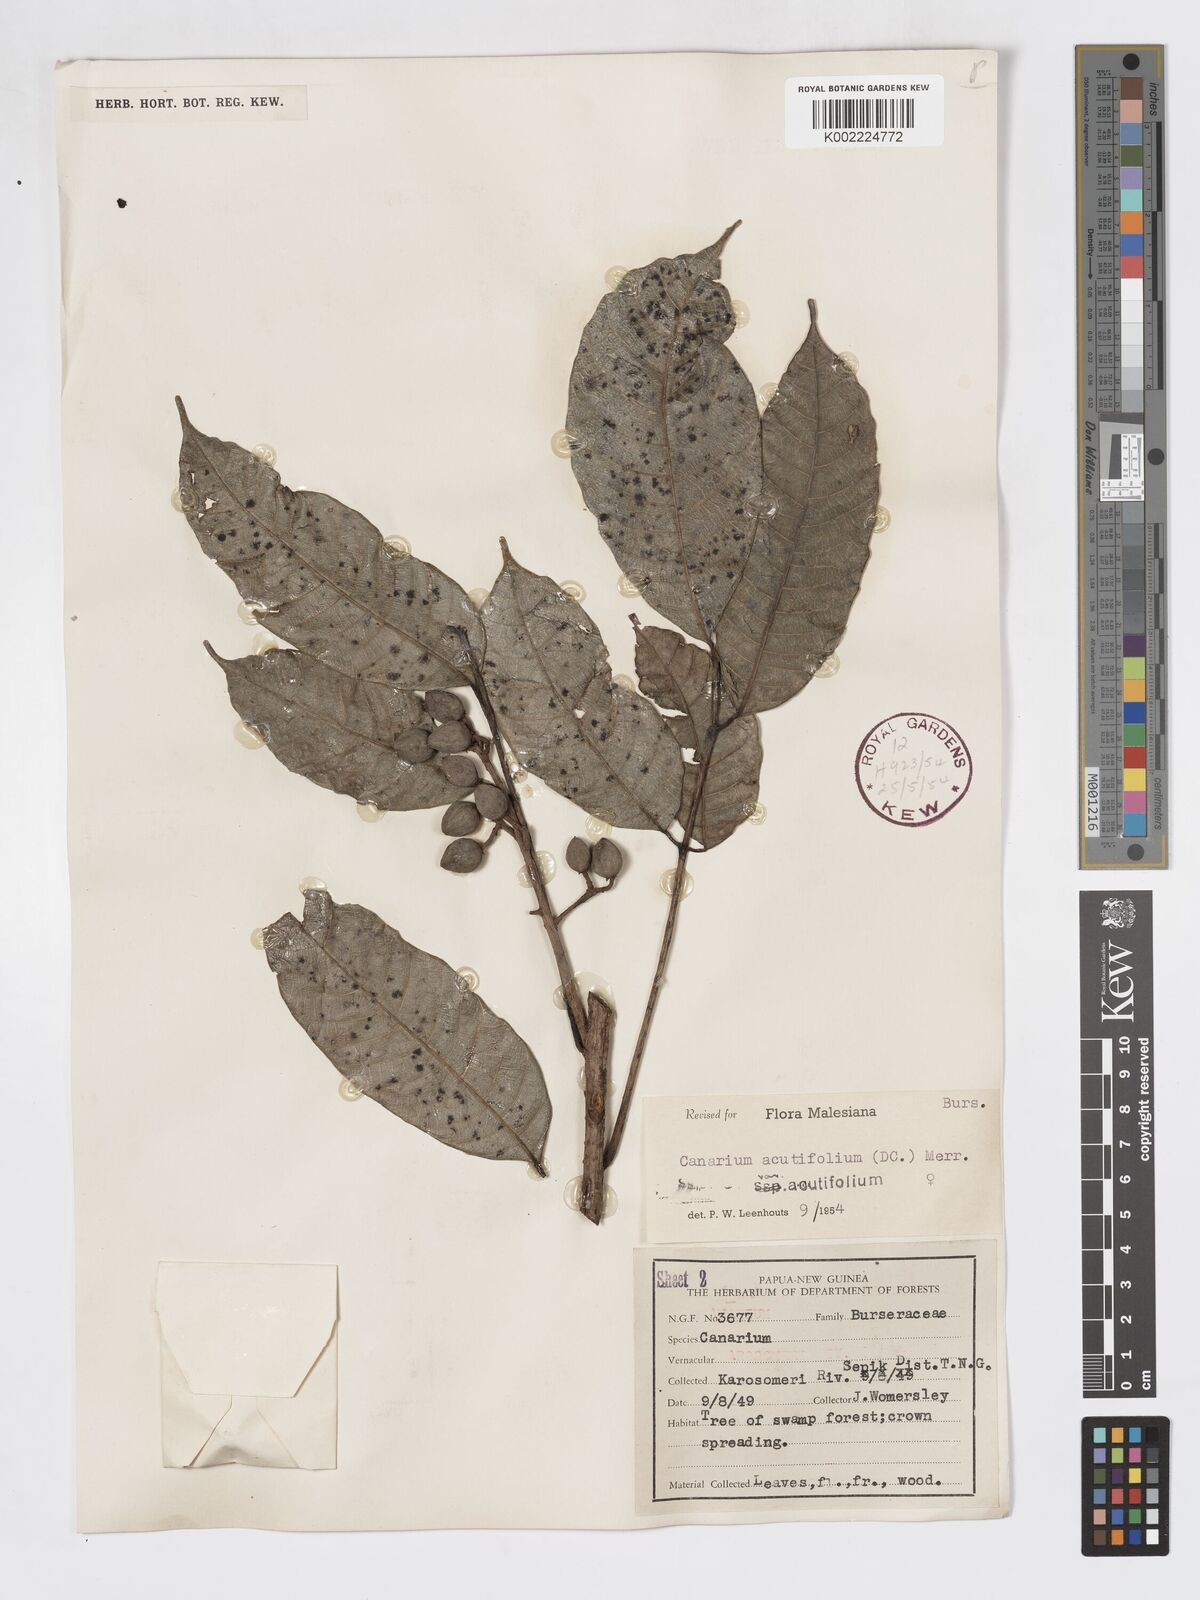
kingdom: Plantae
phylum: Tracheophyta
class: Magnoliopsida
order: Sapindales
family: Burseraceae
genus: Canarium
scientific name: Canarium acutifolium
